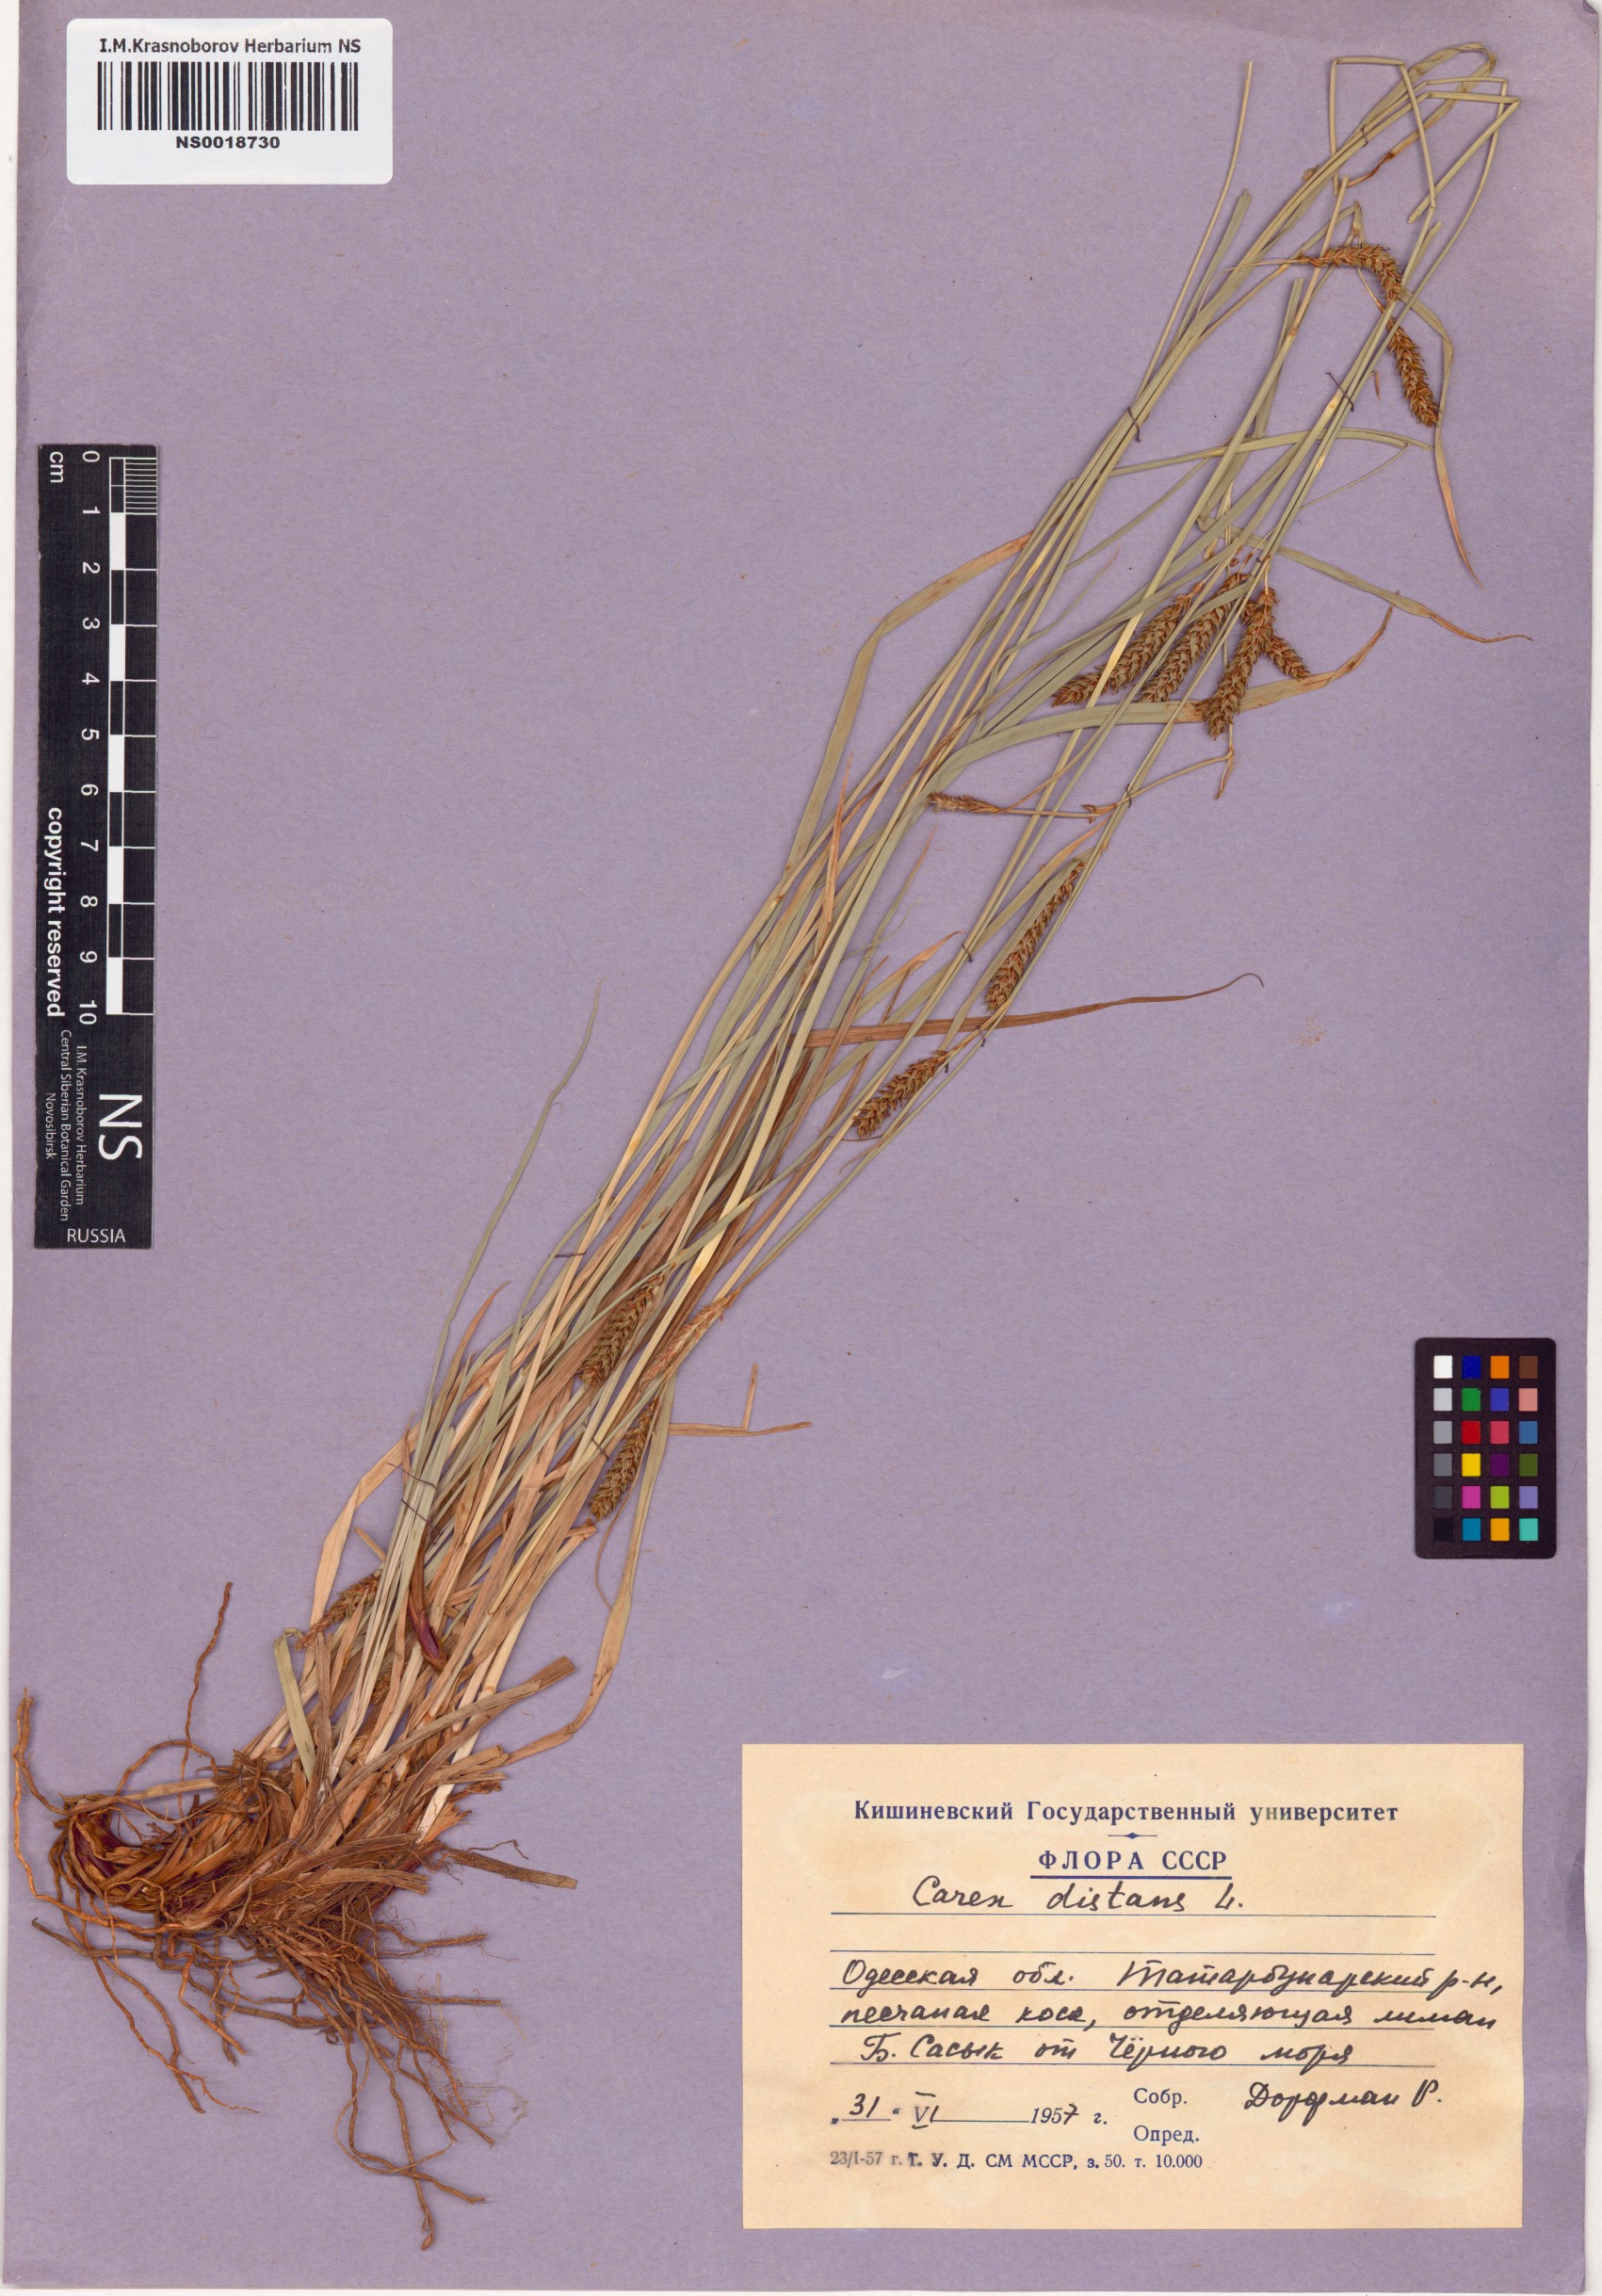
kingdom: Plantae
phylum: Tracheophyta
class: Liliopsida
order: Poales
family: Cyperaceae
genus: Carex
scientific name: Carex distans
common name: Distant sedge
